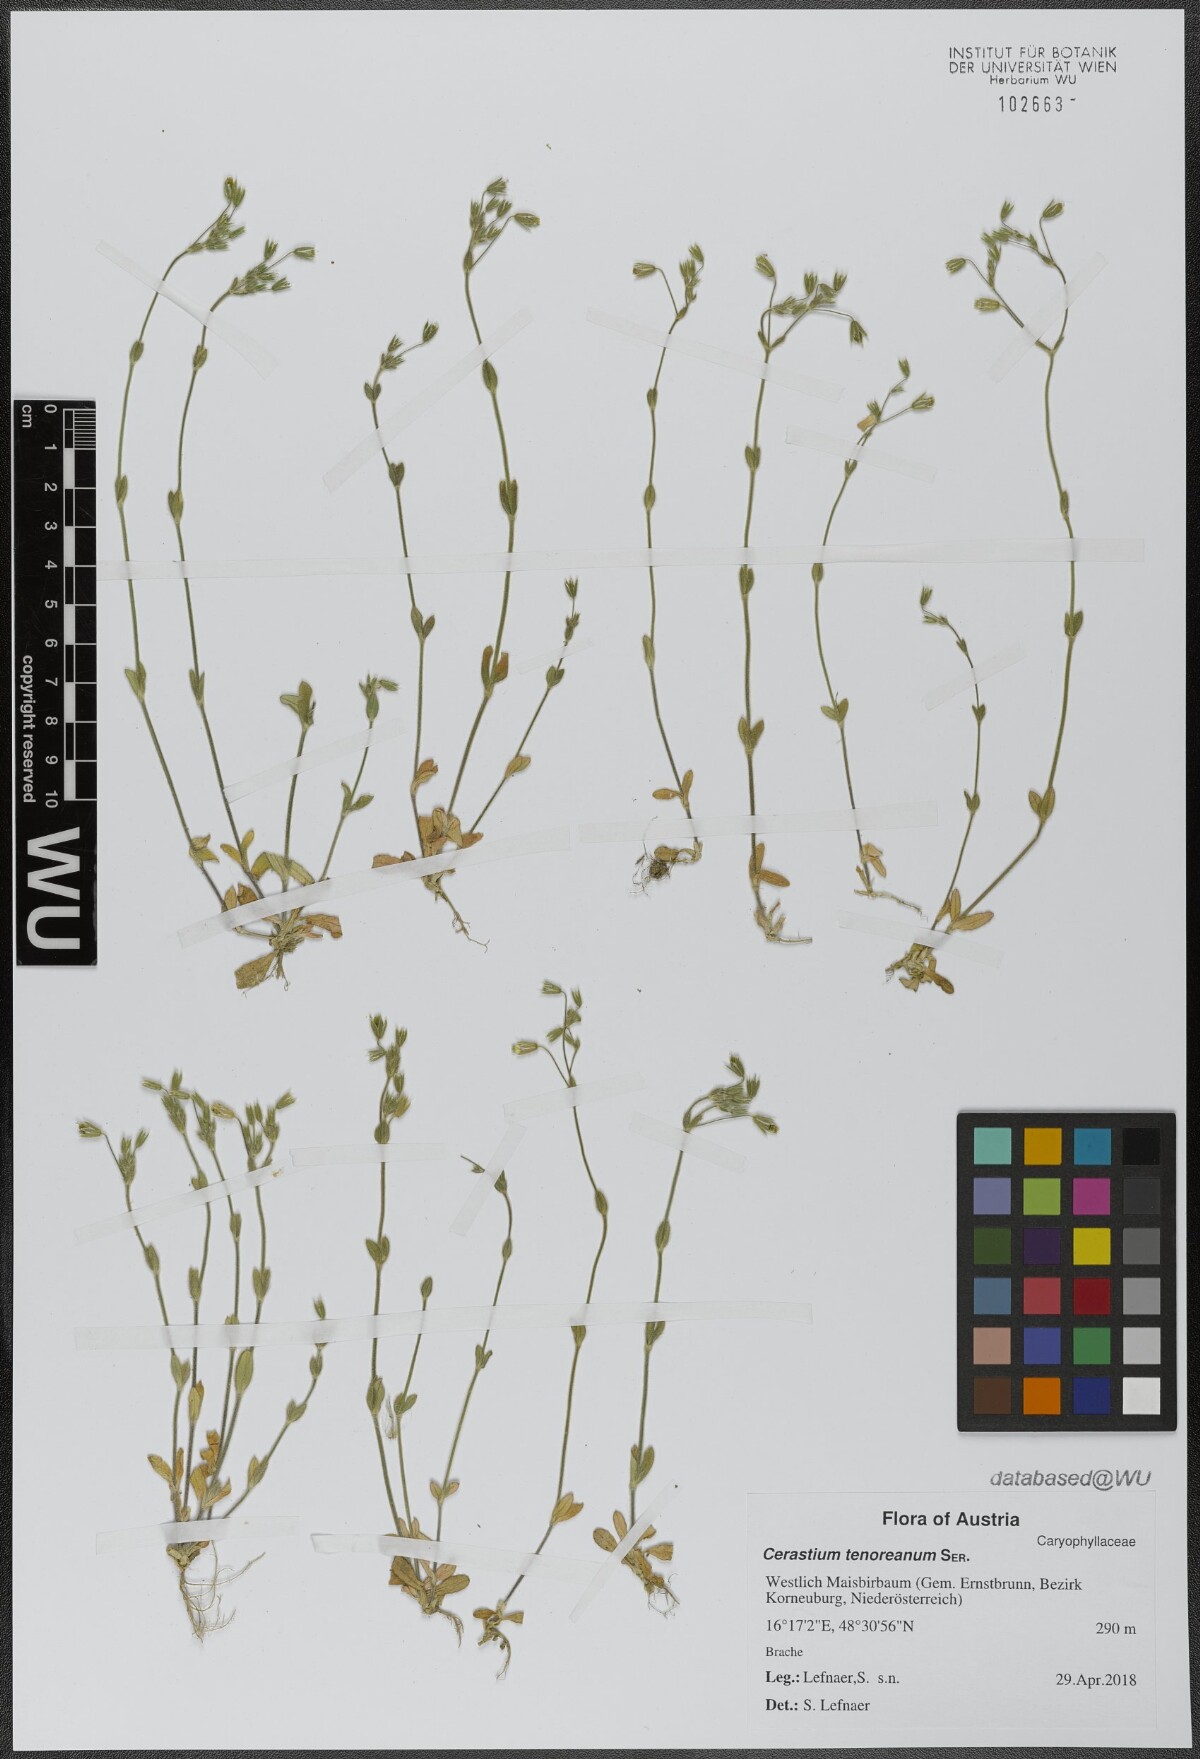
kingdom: Plantae
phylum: Tracheophyta
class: Magnoliopsida
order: Caryophyllales
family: Caryophyllaceae
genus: Cerastium
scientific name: Cerastium tenoreanum
